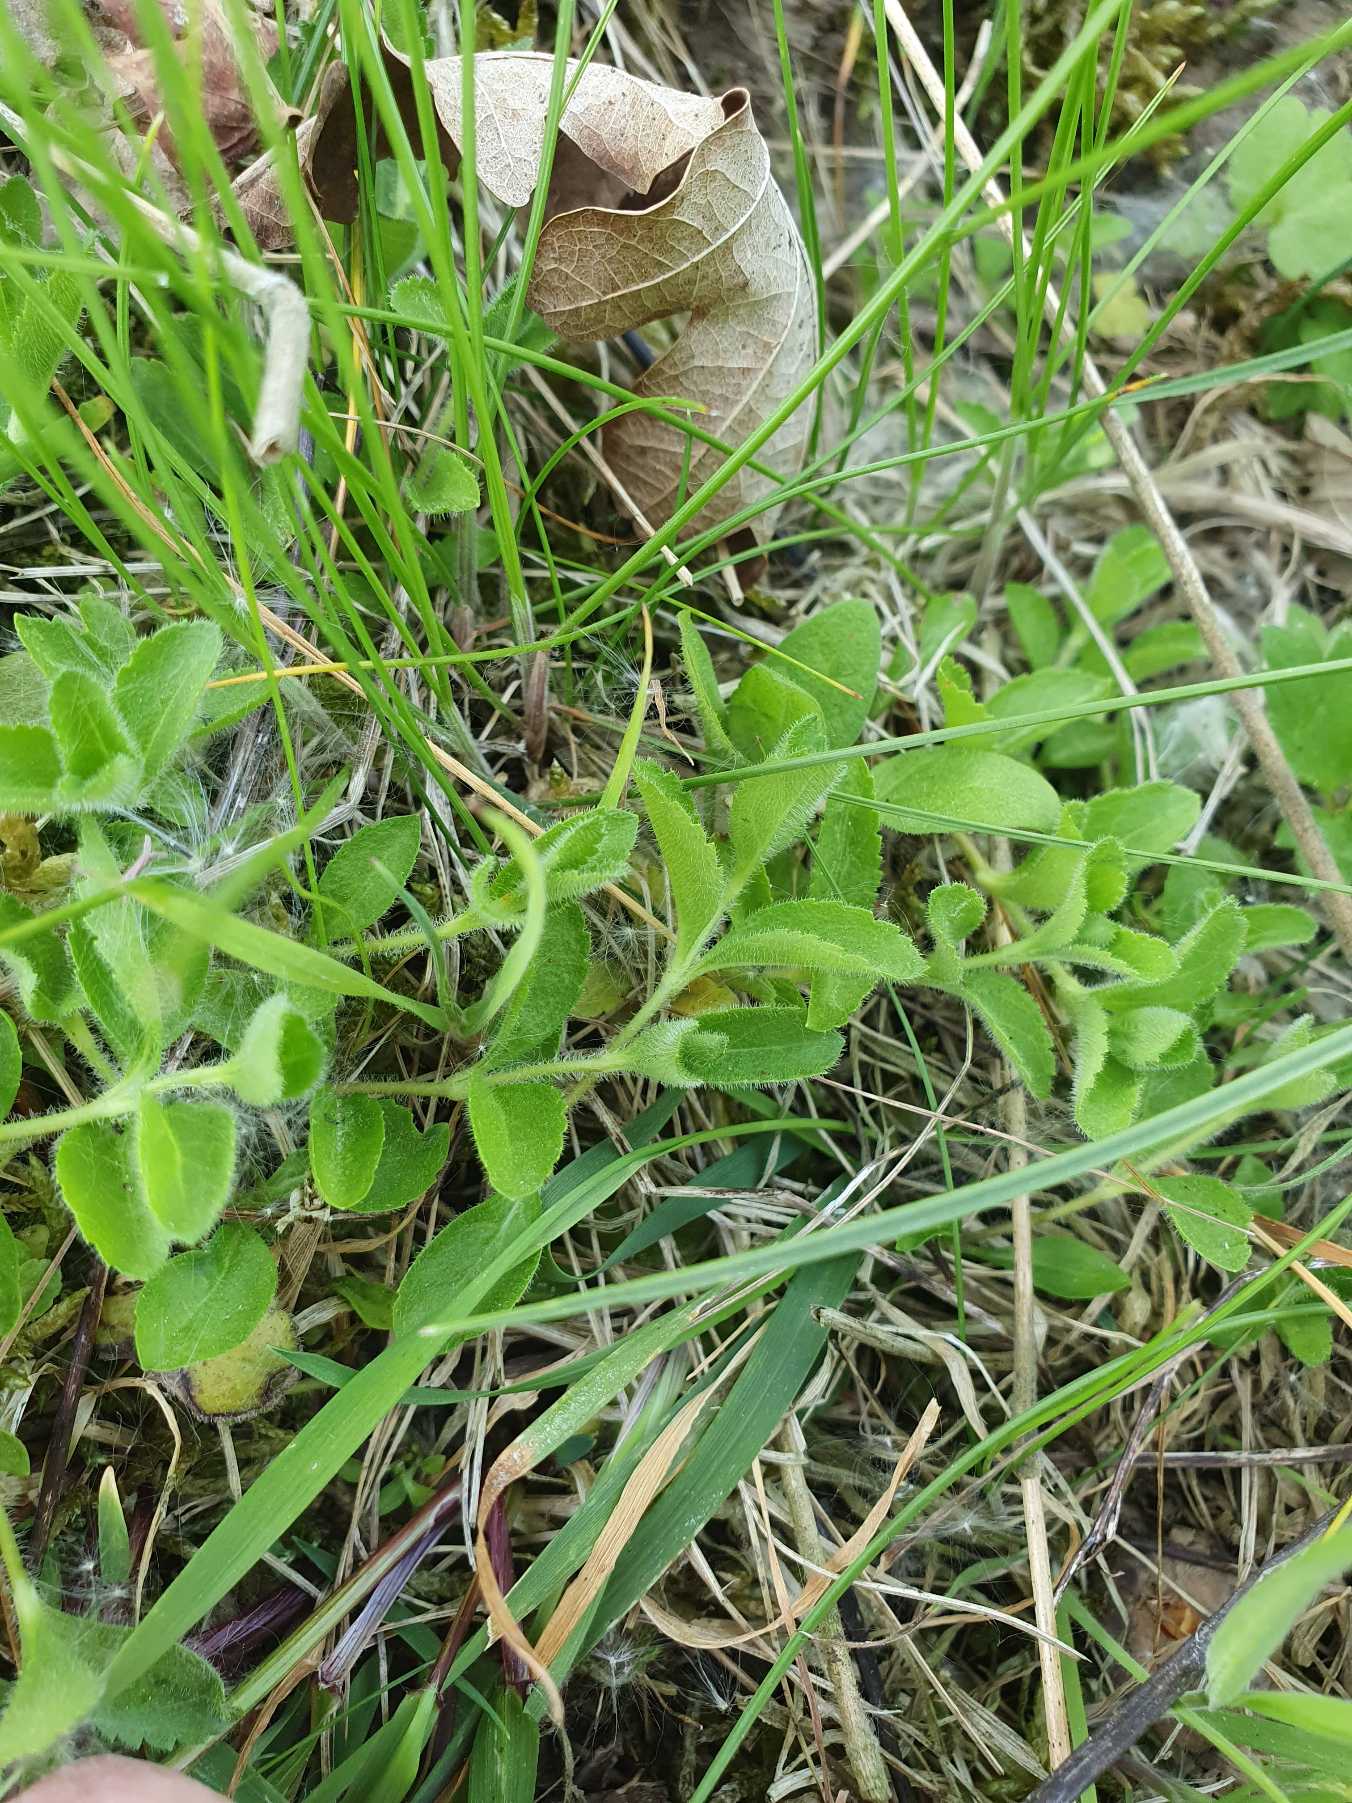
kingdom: Plantae
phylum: Tracheophyta
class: Magnoliopsida
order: Lamiales
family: Plantaginaceae
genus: Veronica
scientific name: Veronica officinalis
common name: Læge-ærenpris
